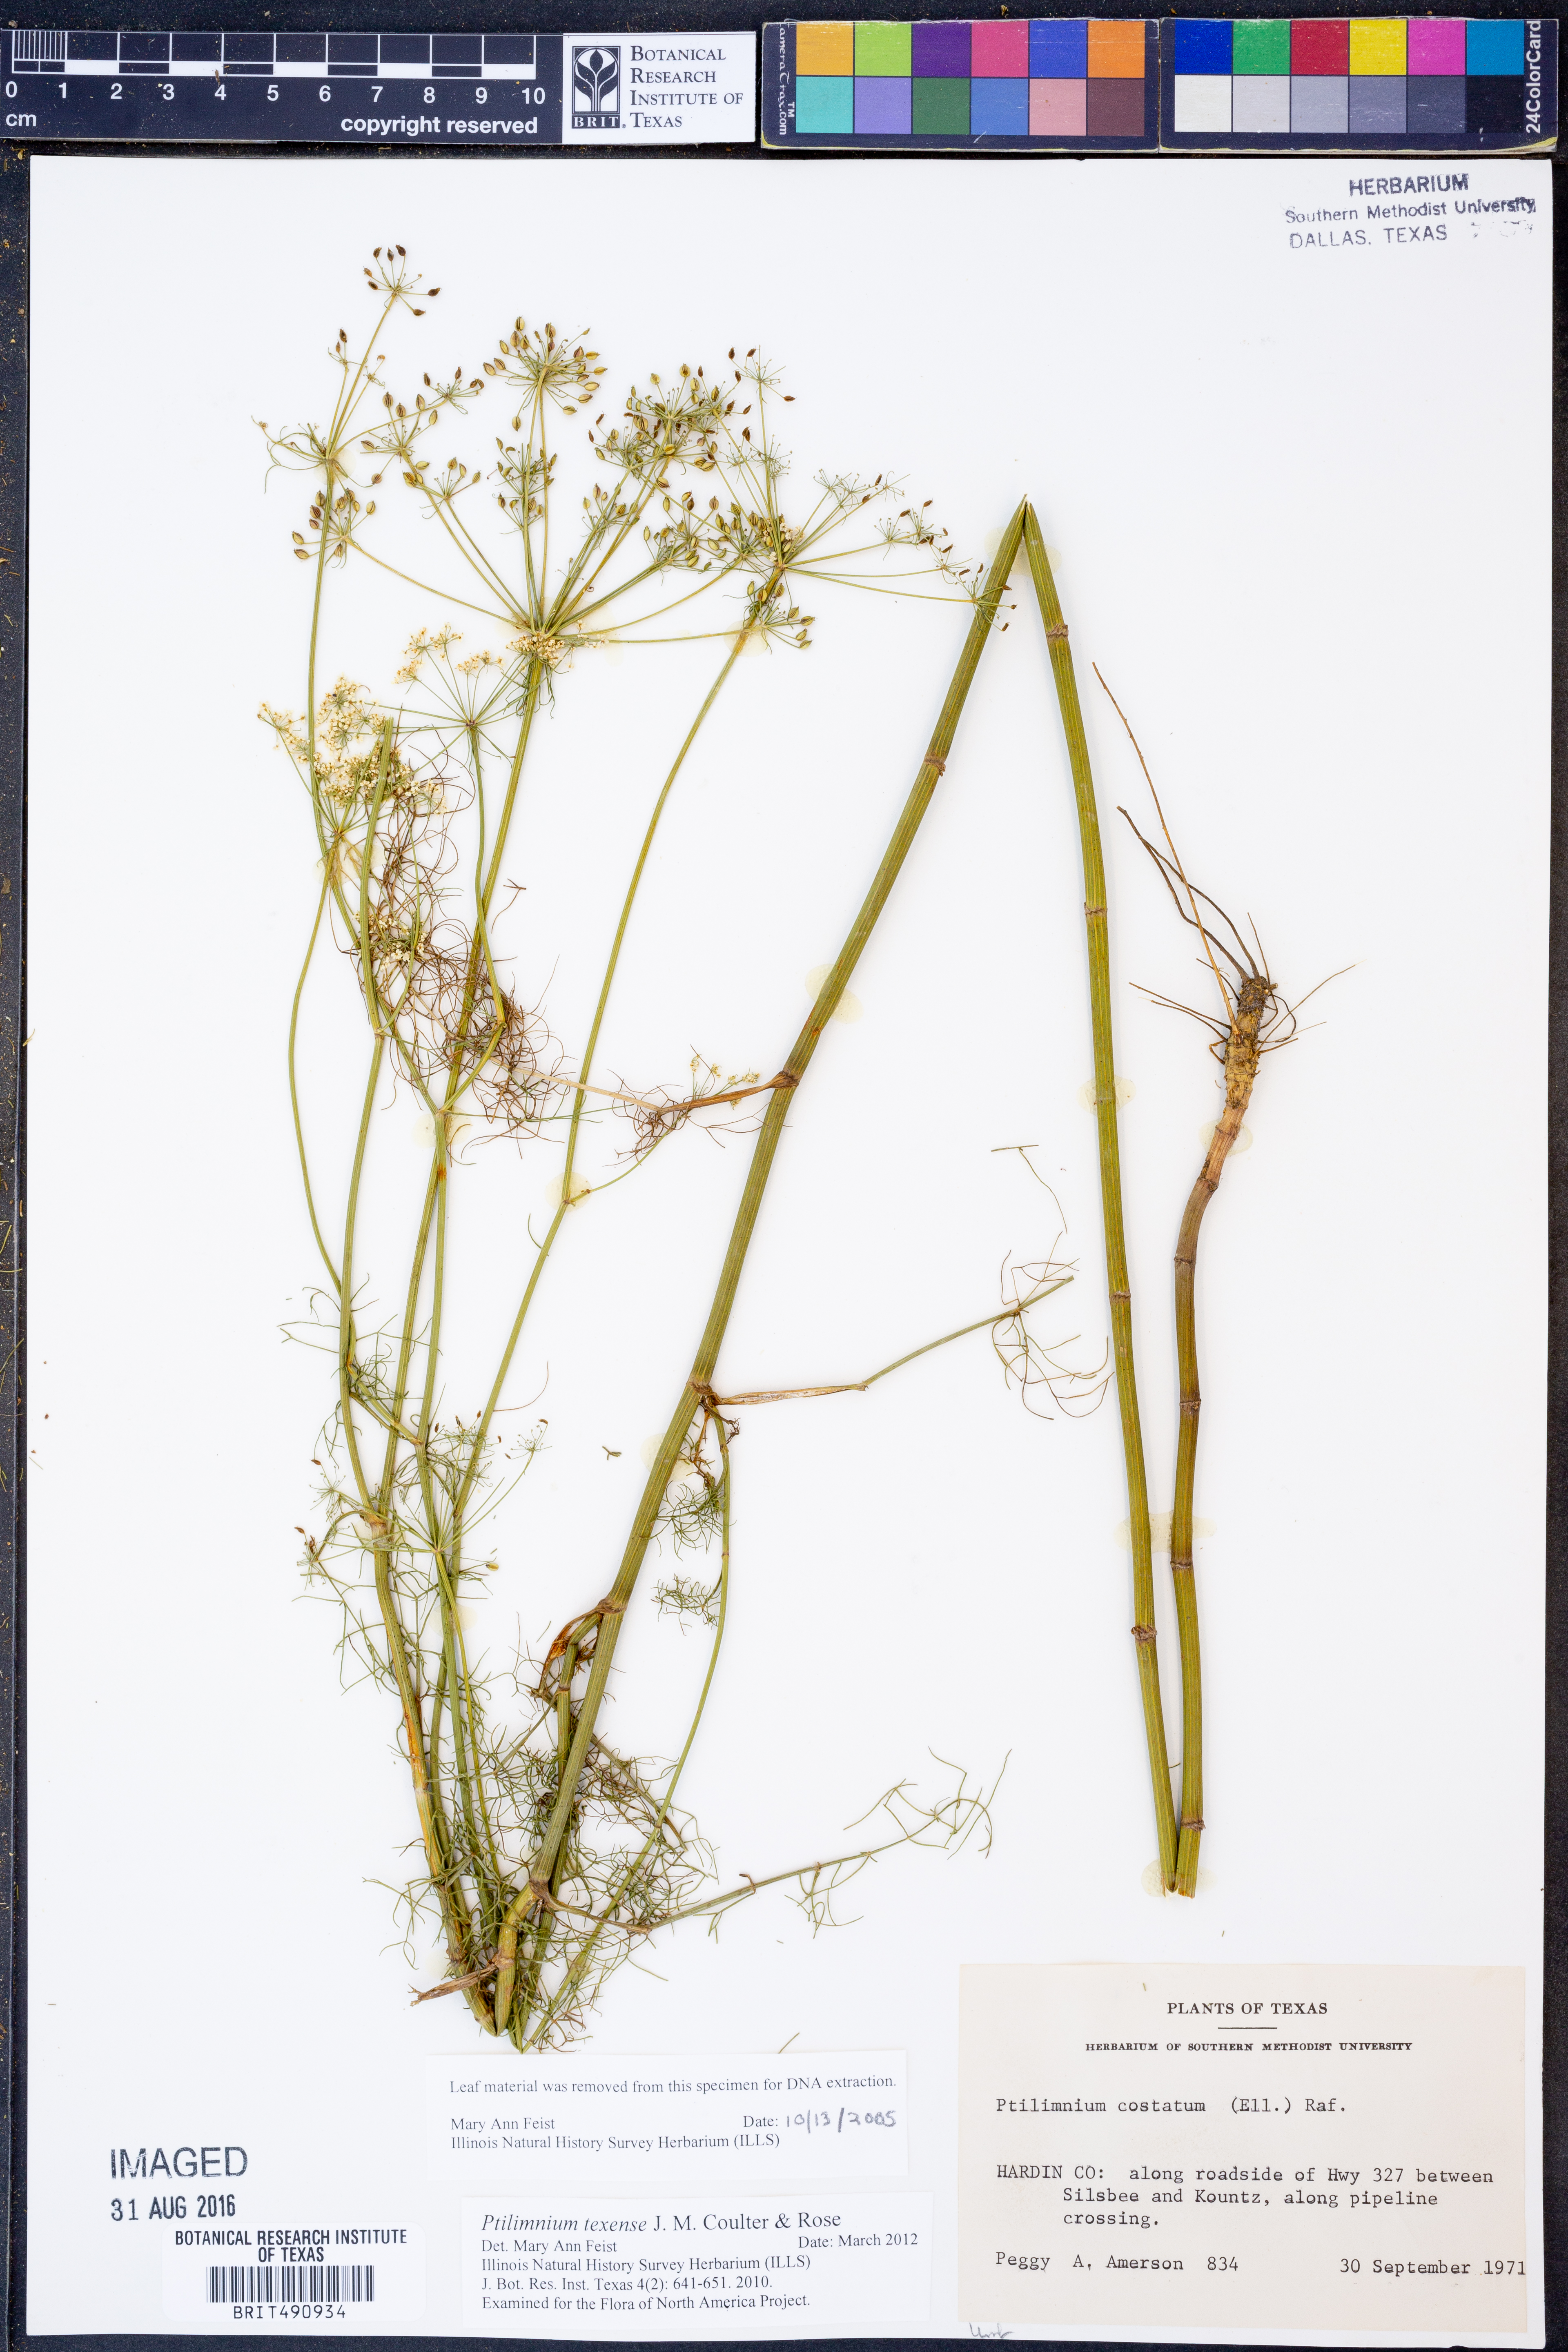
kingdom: Plantae
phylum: Tracheophyta
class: Magnoliopsida
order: Apiales
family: Apiaceae
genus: Ptilimnium
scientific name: Ptilimnium texense
